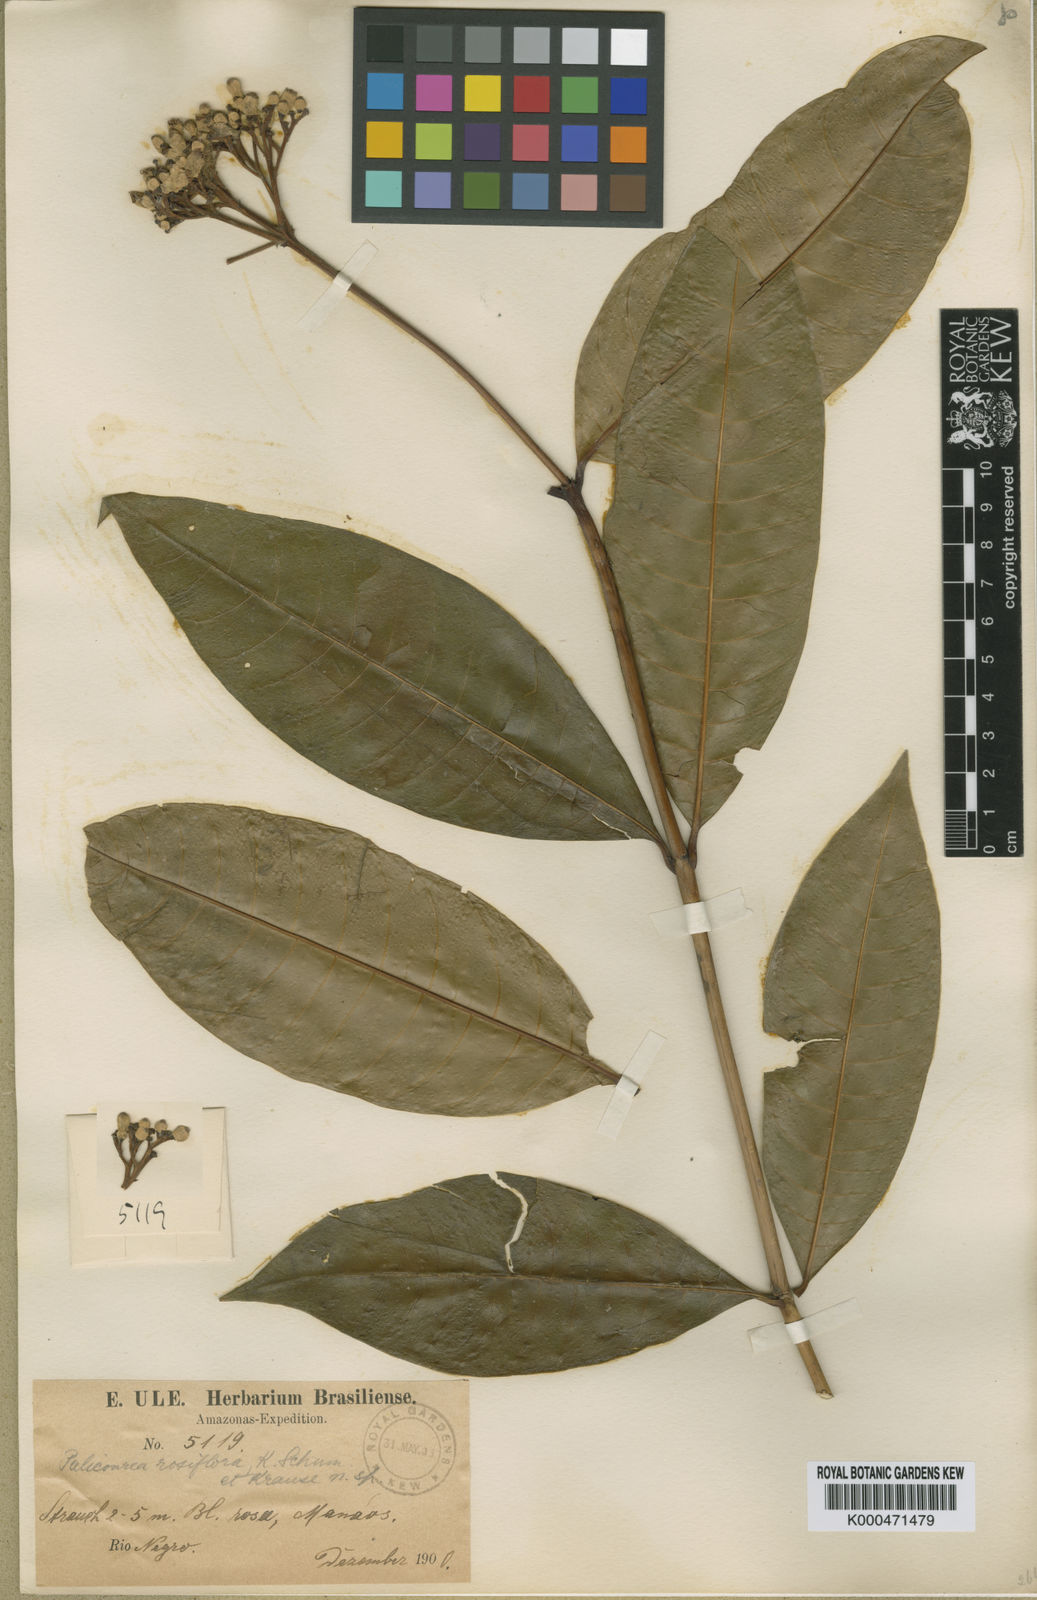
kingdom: Plantae
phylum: Tracheophyta
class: Magnoliopsida
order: Gentianales
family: Rubiaceae
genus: Palicourea
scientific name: Palicourea roseiflora
